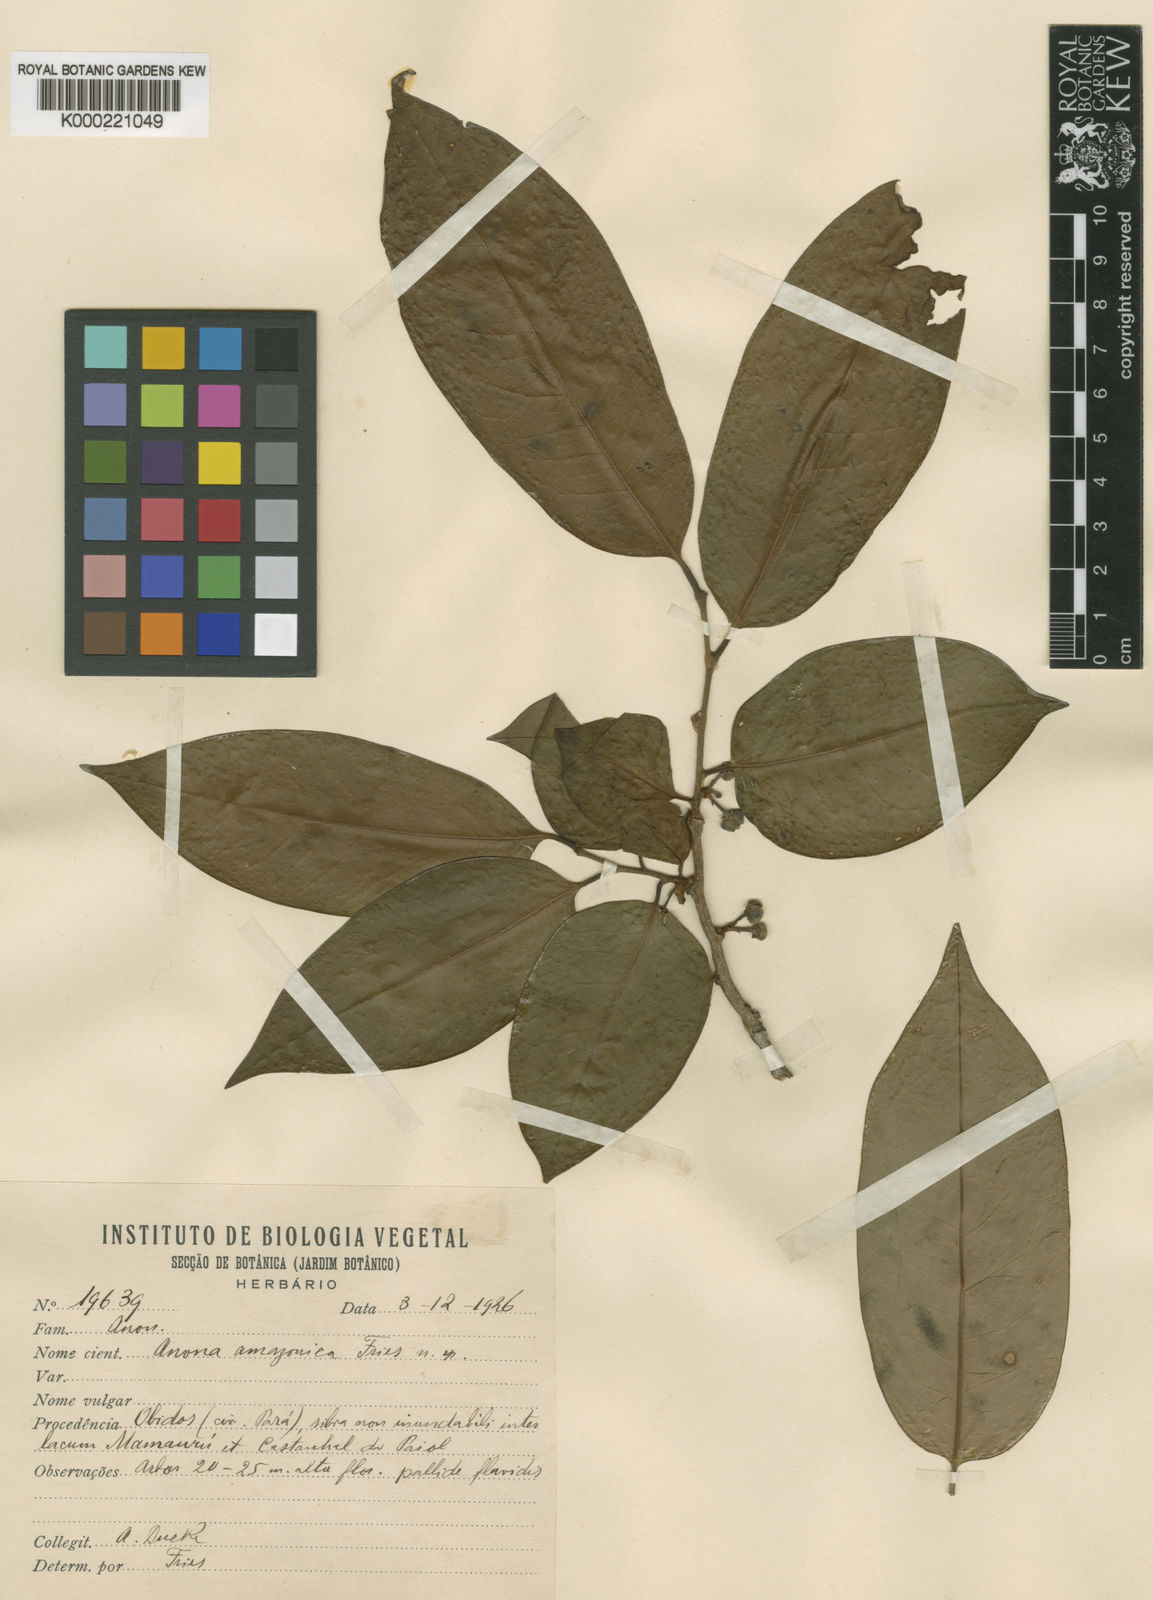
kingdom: Plantae
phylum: Tracheophyta
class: Magnoliopsida
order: Magnoliales
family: Annonaceae
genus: Annona
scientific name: Annona amazonica
